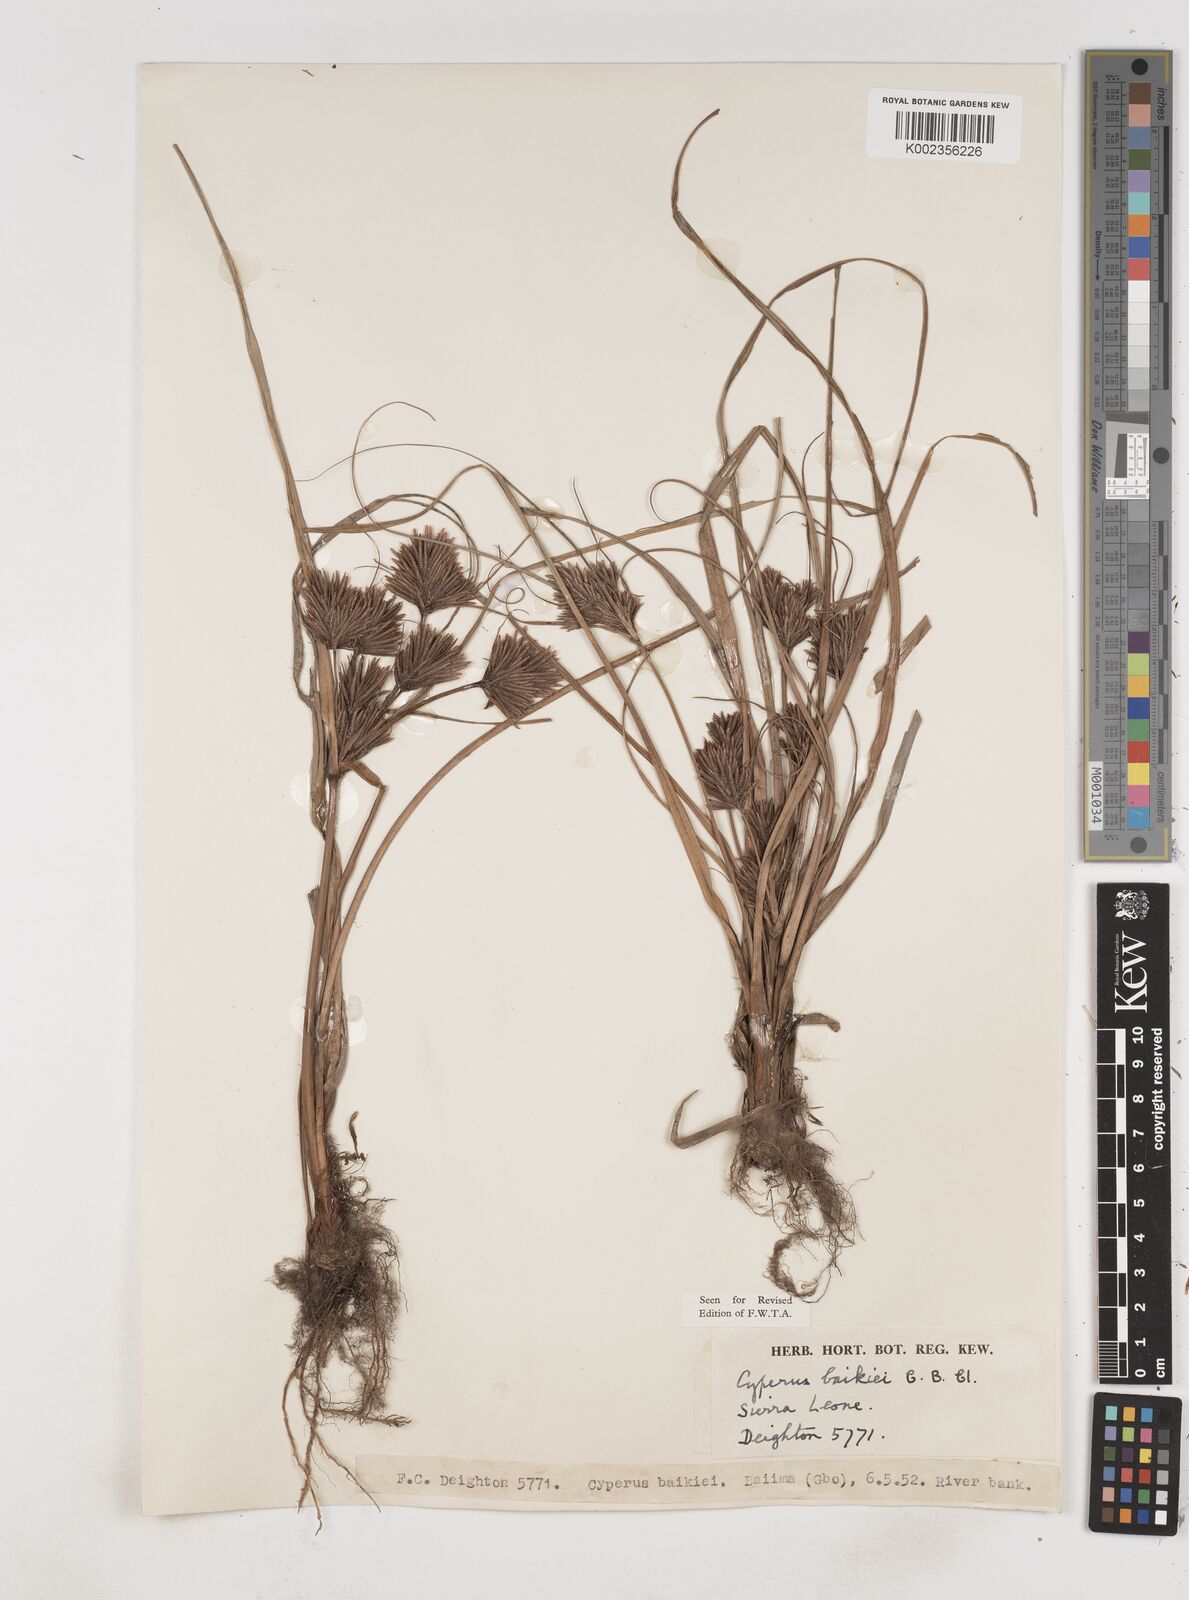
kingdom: Plantae
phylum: Tracheophyta
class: Liliopsida
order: Poales
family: Cyperaceae
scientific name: Cyperaceae
